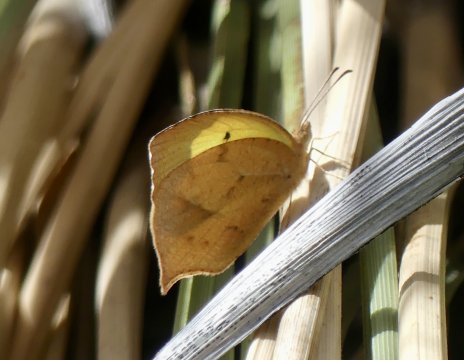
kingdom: Animalia
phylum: Arthropoda
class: Insecta
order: Lepidoptera
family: Pieridae
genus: Eurema
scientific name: Eurema mexicana
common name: Mexican Yellow
